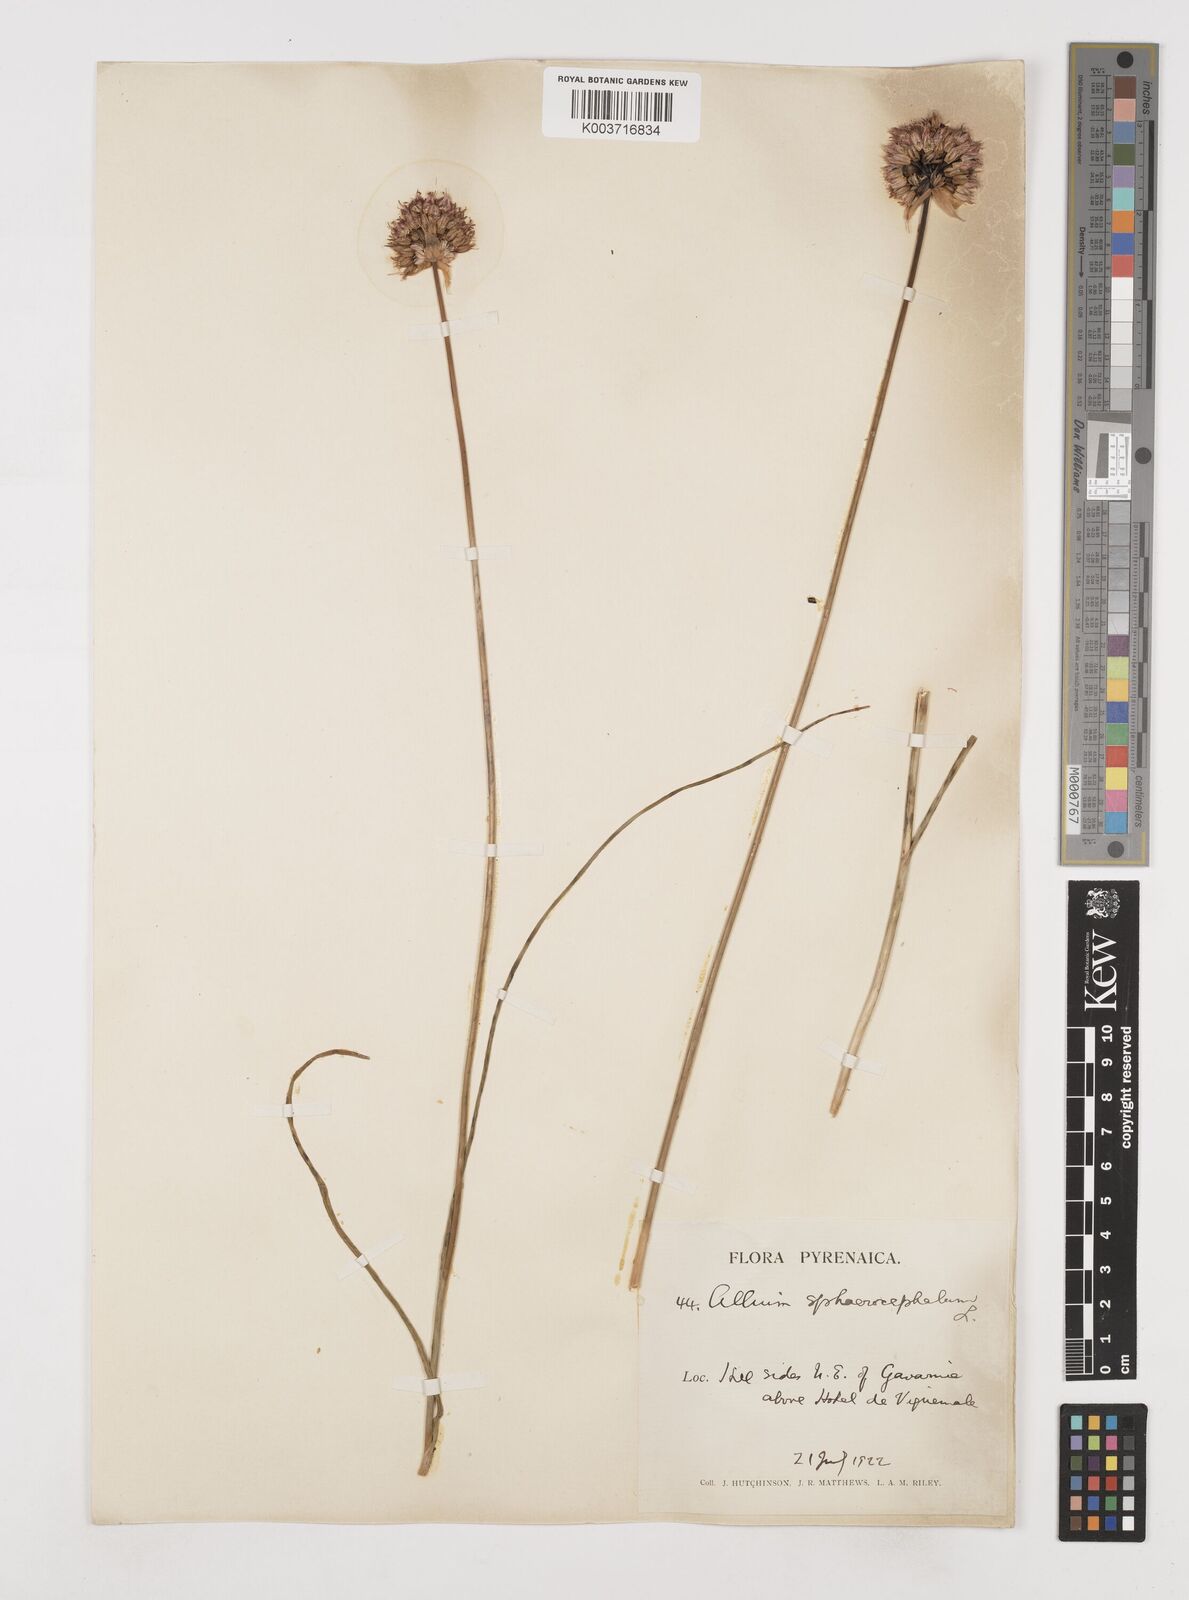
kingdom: Plantae
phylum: Tracheophyta
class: Liliopsida
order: Asparagales
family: Amaryllidaceae
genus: Allium
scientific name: Allium sphaerocephalon
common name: Round-headed leek
